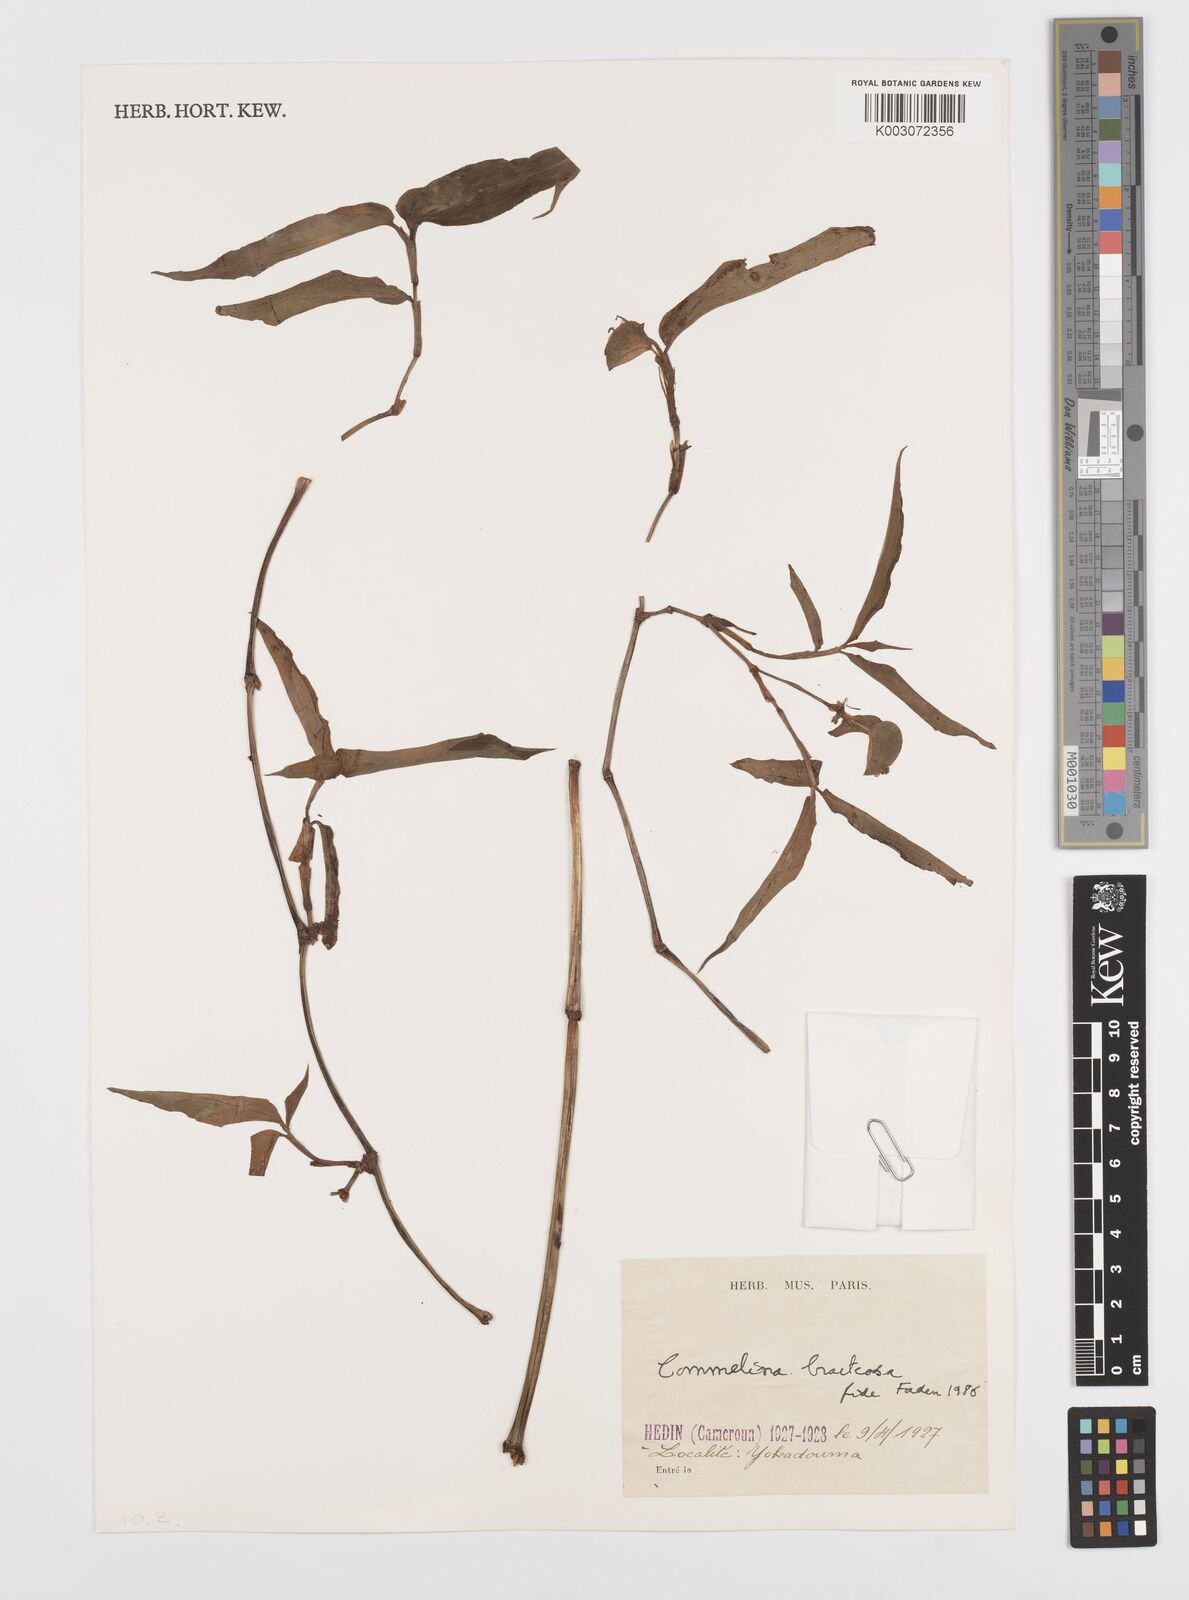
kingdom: Plantae
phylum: Tracheophyta
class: Liliopsida
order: Commelinales
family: Commelinaceae
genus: Commelina
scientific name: Commelina bracteosa
